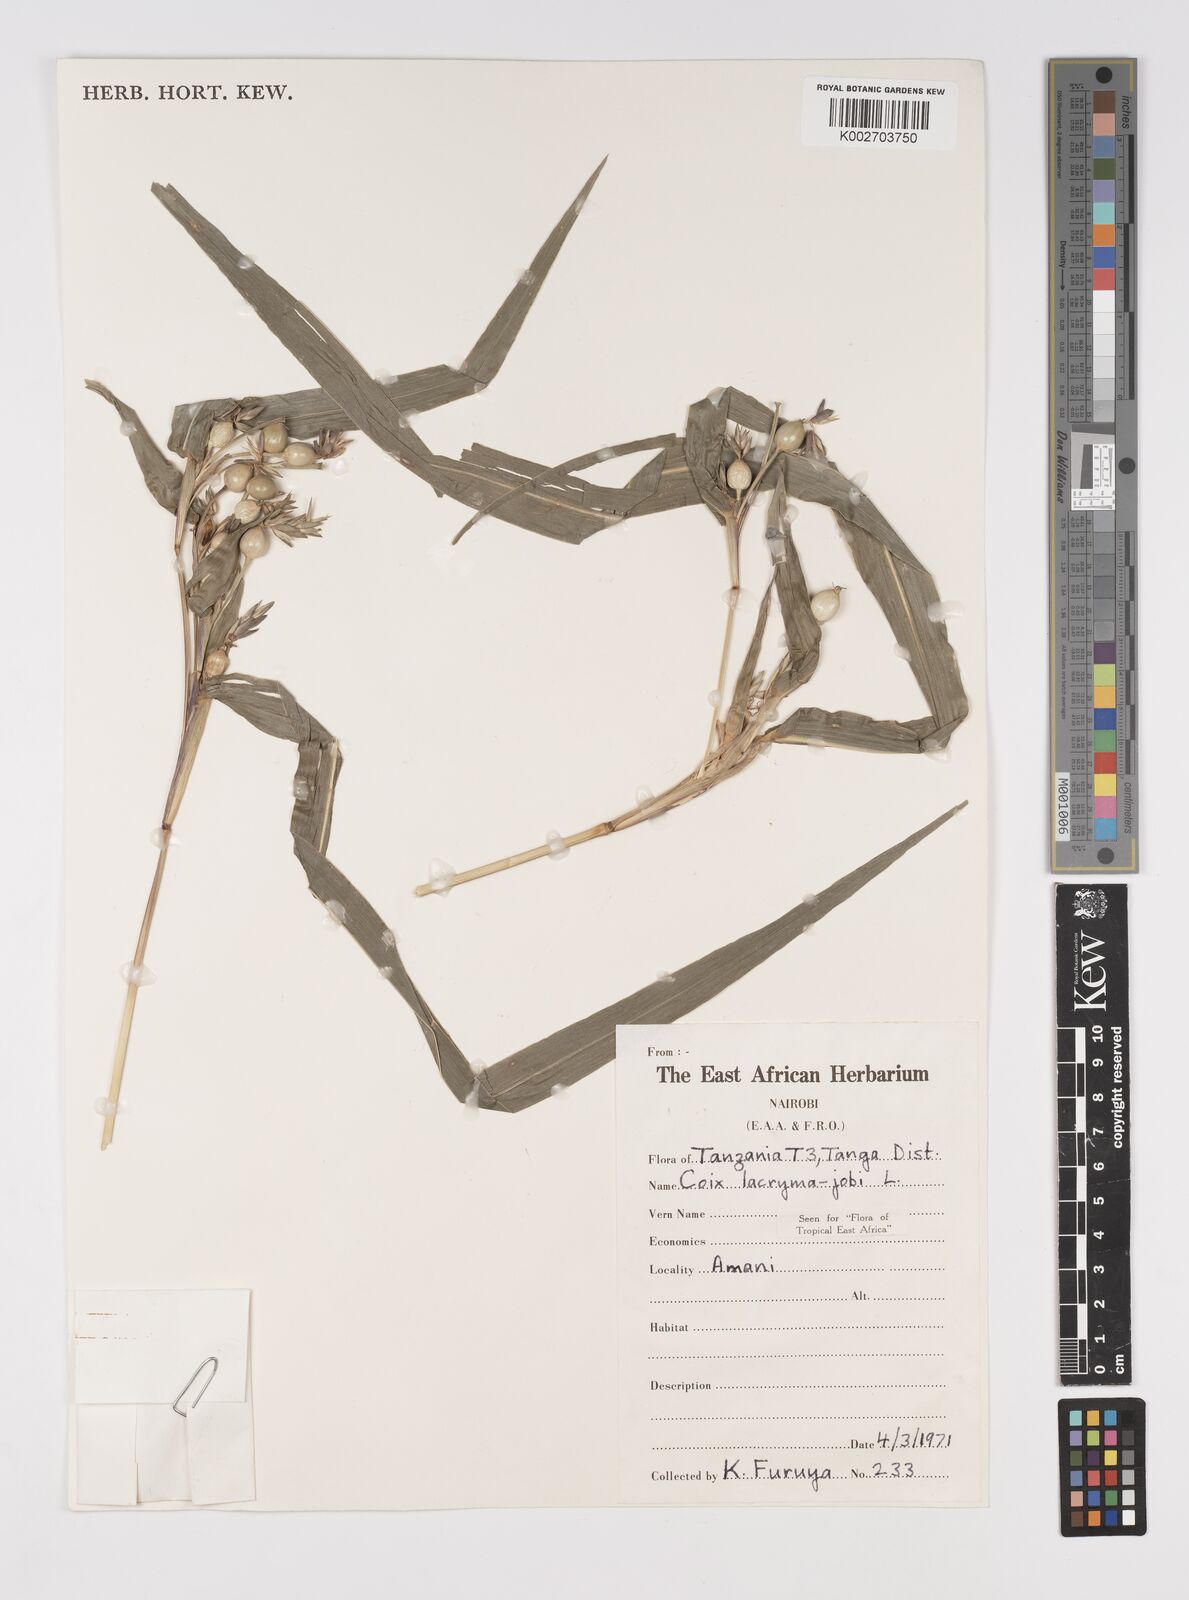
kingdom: Plantae
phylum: Tracheophyta
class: Liliopsida
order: Poales
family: Poaceae
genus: Coix
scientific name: Coix lacryma-jobi
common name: Job's tears
